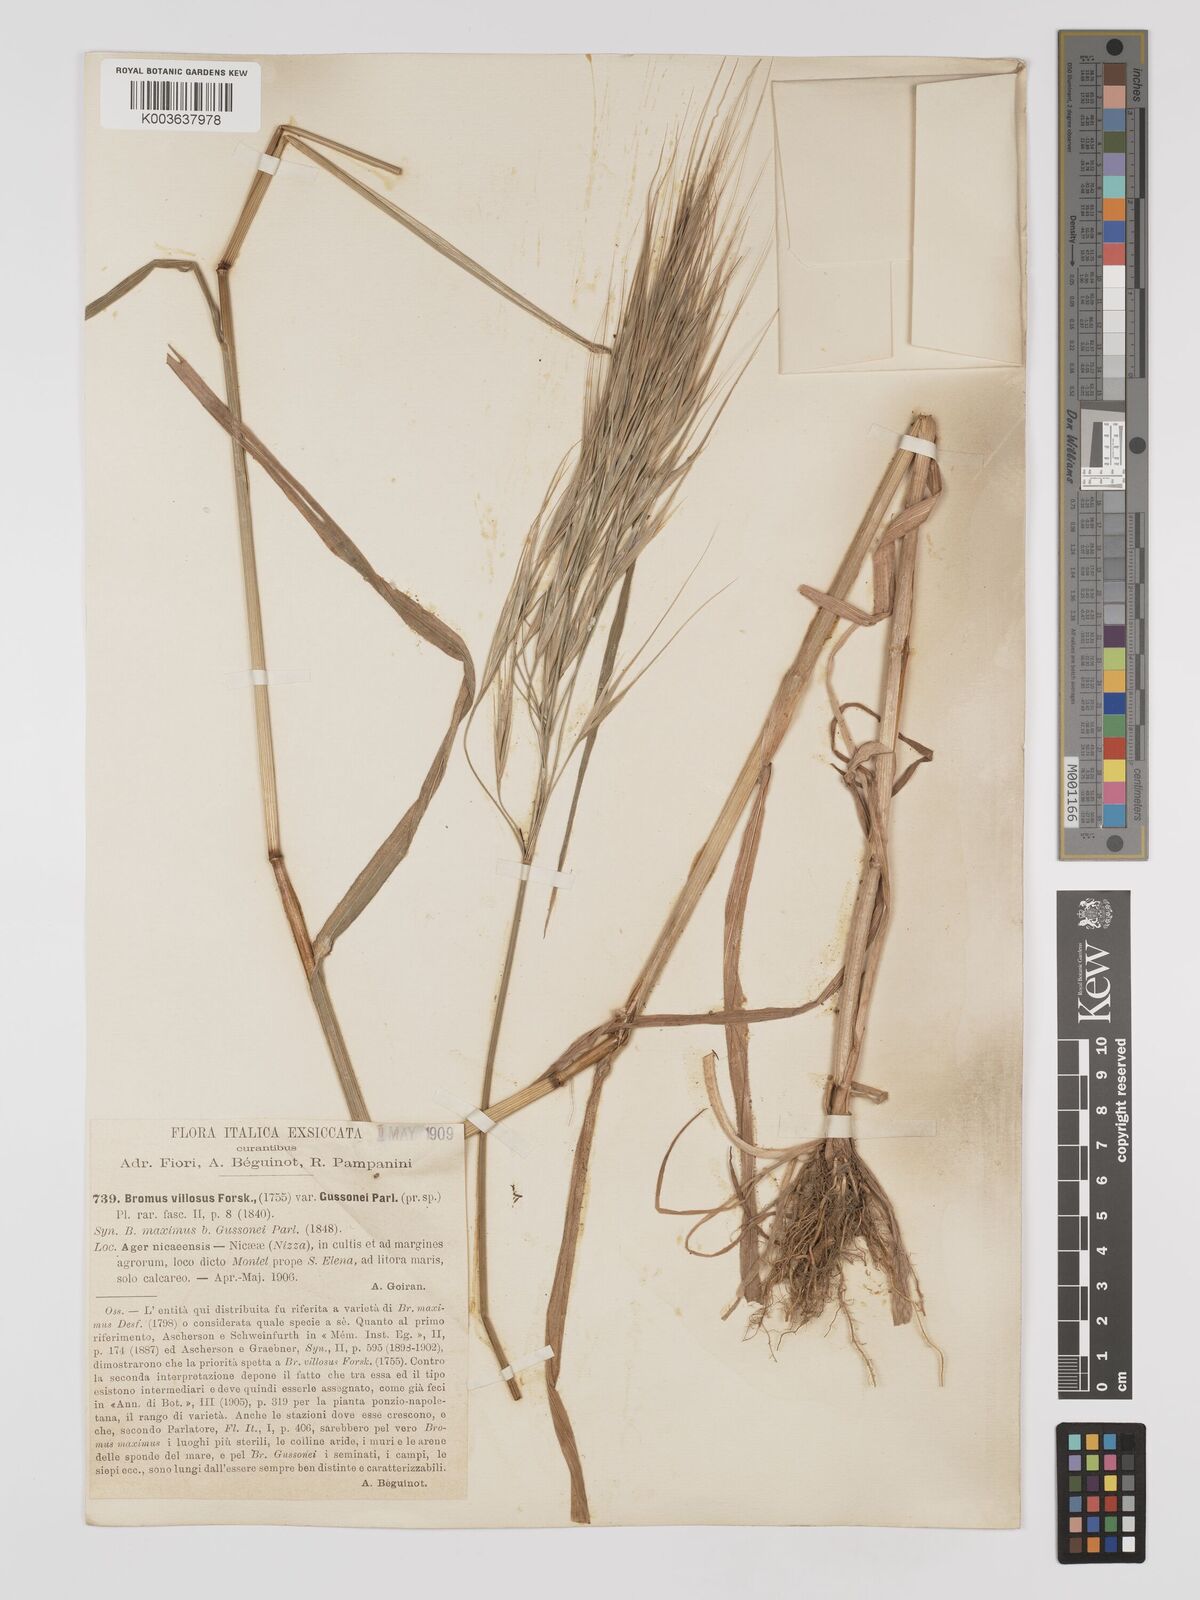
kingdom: Plantae
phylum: Tracheophyta
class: Liliopsida
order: Poales
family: Poaceae
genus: Bromus
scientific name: Bromus
